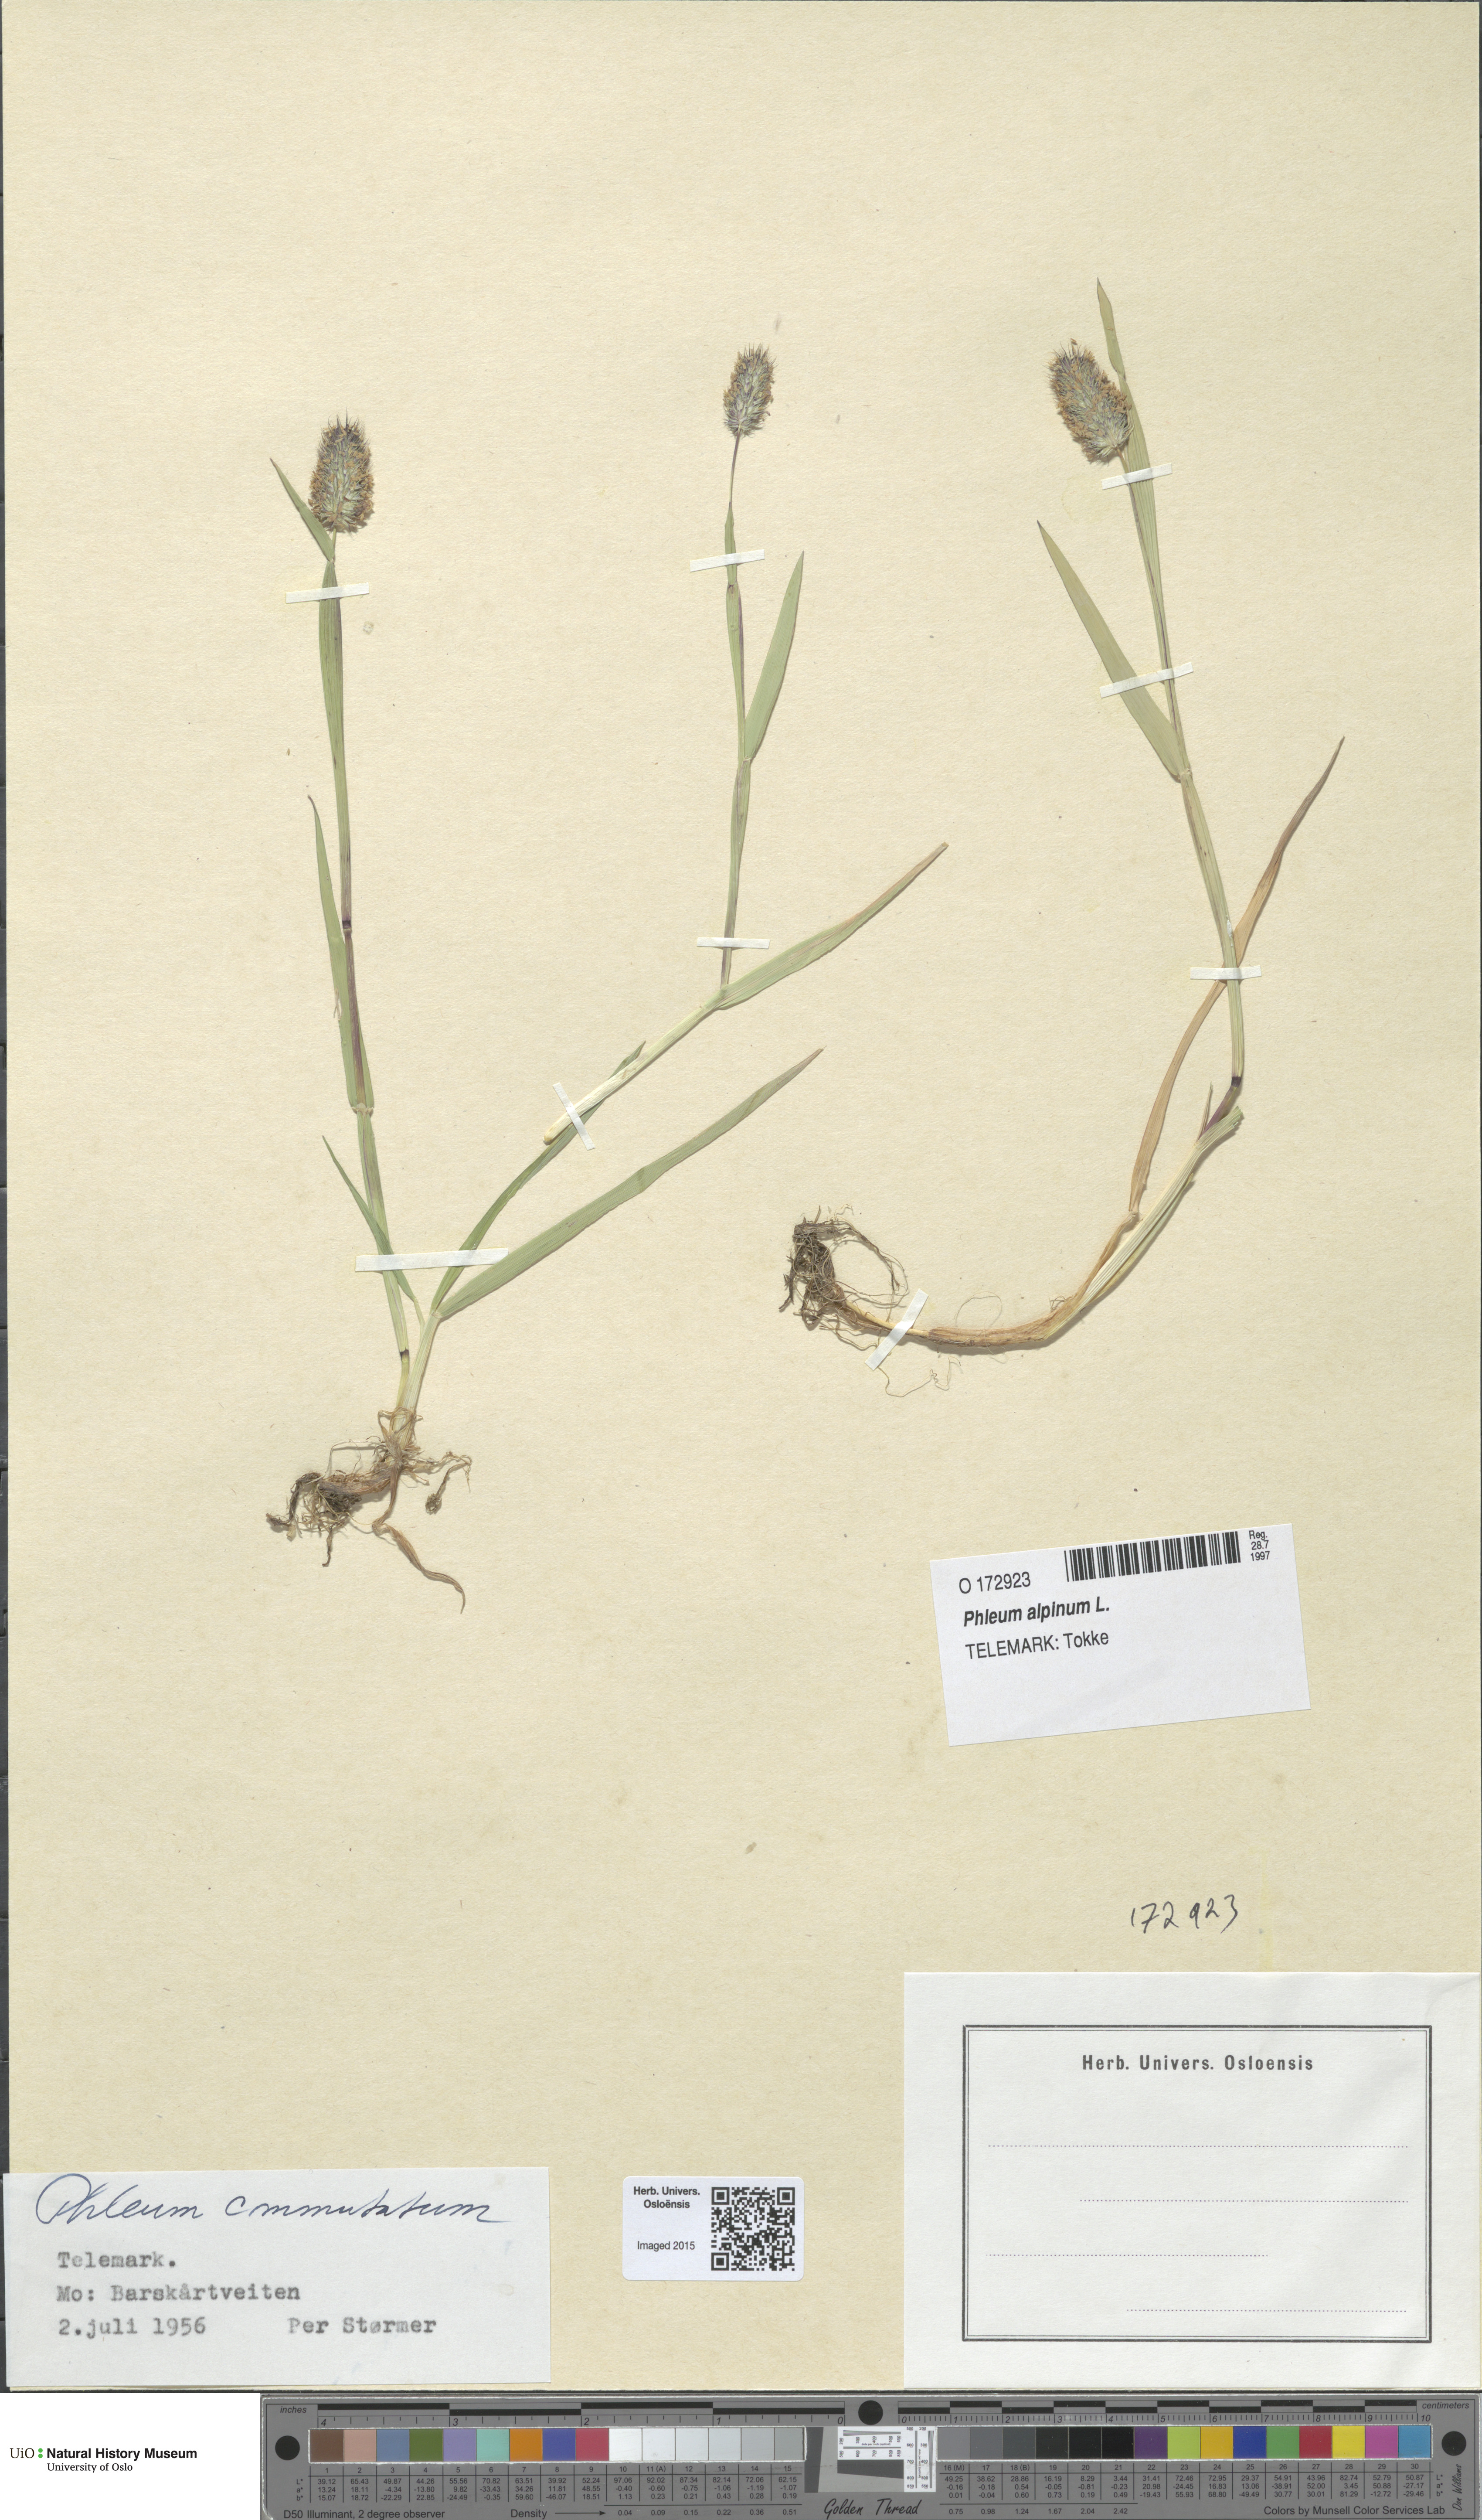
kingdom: Plantae
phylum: Tracheophyta
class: Liliopsida
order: Poales
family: Poaceae
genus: Phleum
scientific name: Phleum alpinum
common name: Alpine cat's-tail
